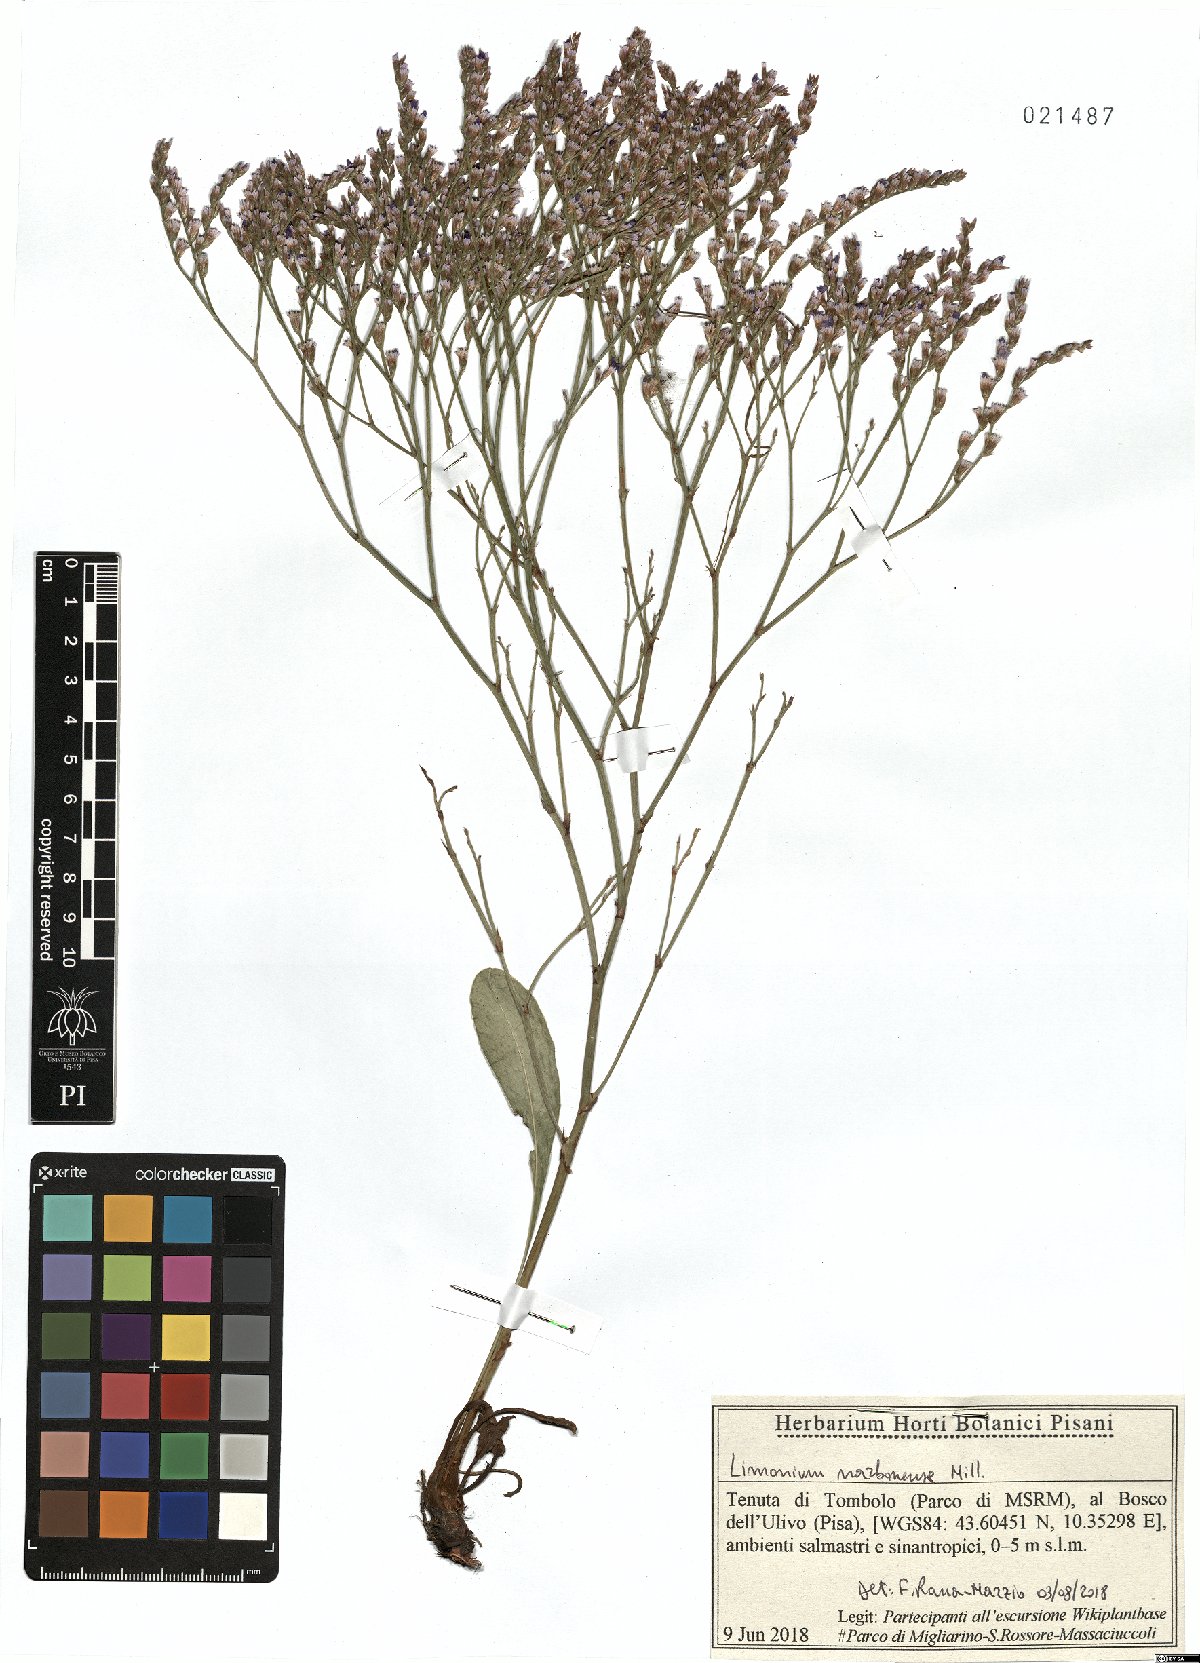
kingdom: Plantae
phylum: Tracheophyta
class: Magnoliopsida
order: Caryophyllales
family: Plumbaginaceae
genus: Limonium
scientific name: Limonium narbonense
